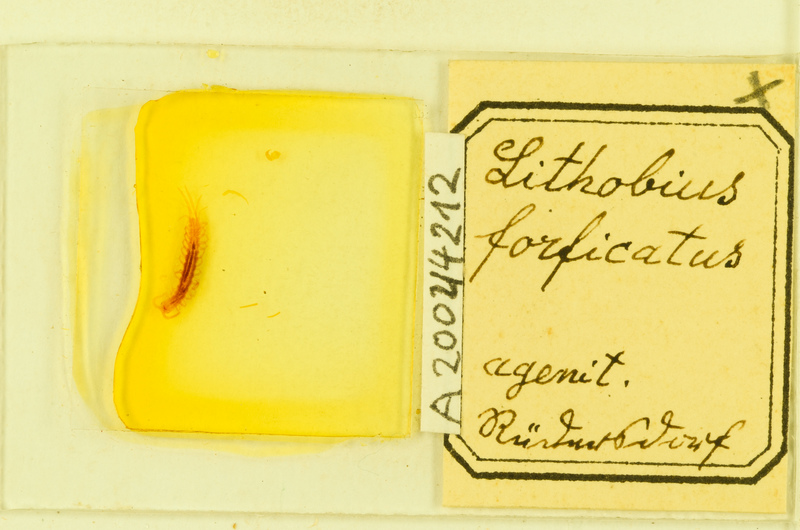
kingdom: Animalia
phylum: Arthropoda
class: Chilopoda
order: Lithobiomorpha
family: Lithobiidae
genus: Lithobius
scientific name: Lithobius forficatus
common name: Centipede
